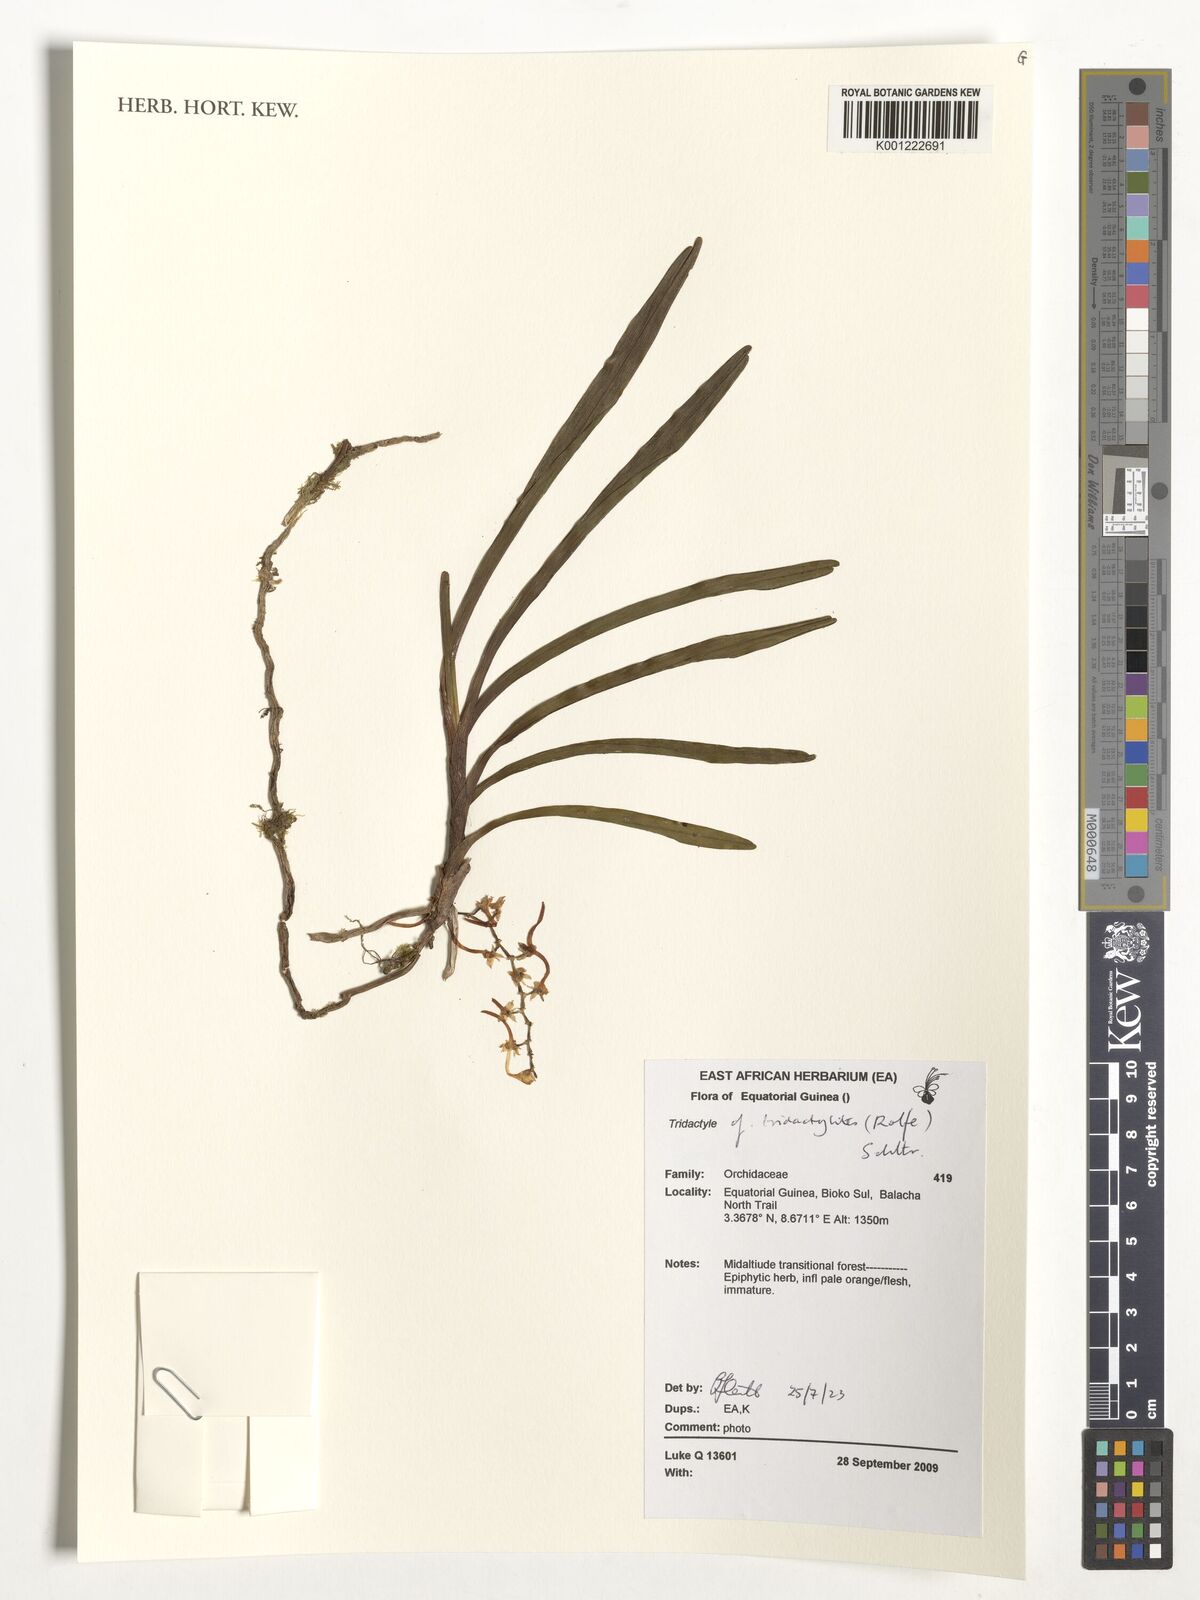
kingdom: Plantae
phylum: Tracheophyta
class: Liliopsida
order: Asparagales
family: Orchidaceae
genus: Tridactyle
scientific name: Tridactyle tridactylites
